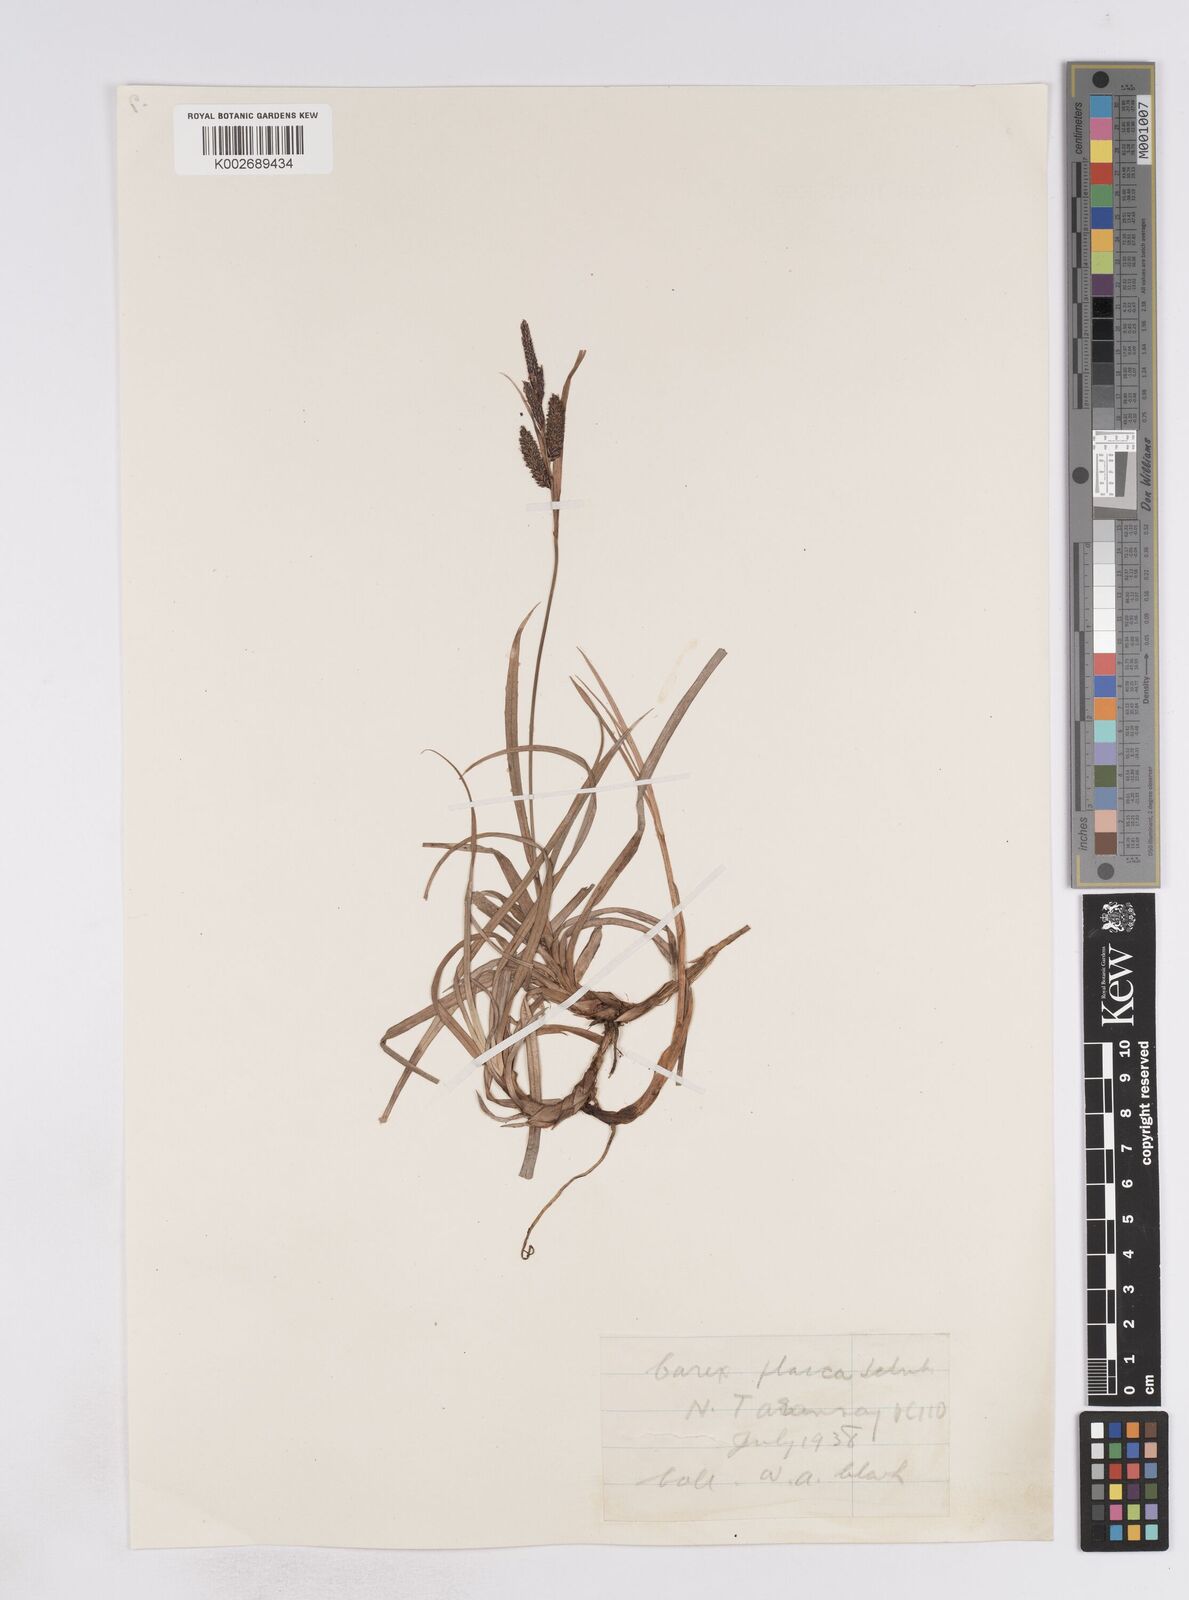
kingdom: Plantae
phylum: Tracheophyta
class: Liliopsida
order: Poales
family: Cyperaceae
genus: Carex
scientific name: Carex flacca
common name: Glaucous sedge
